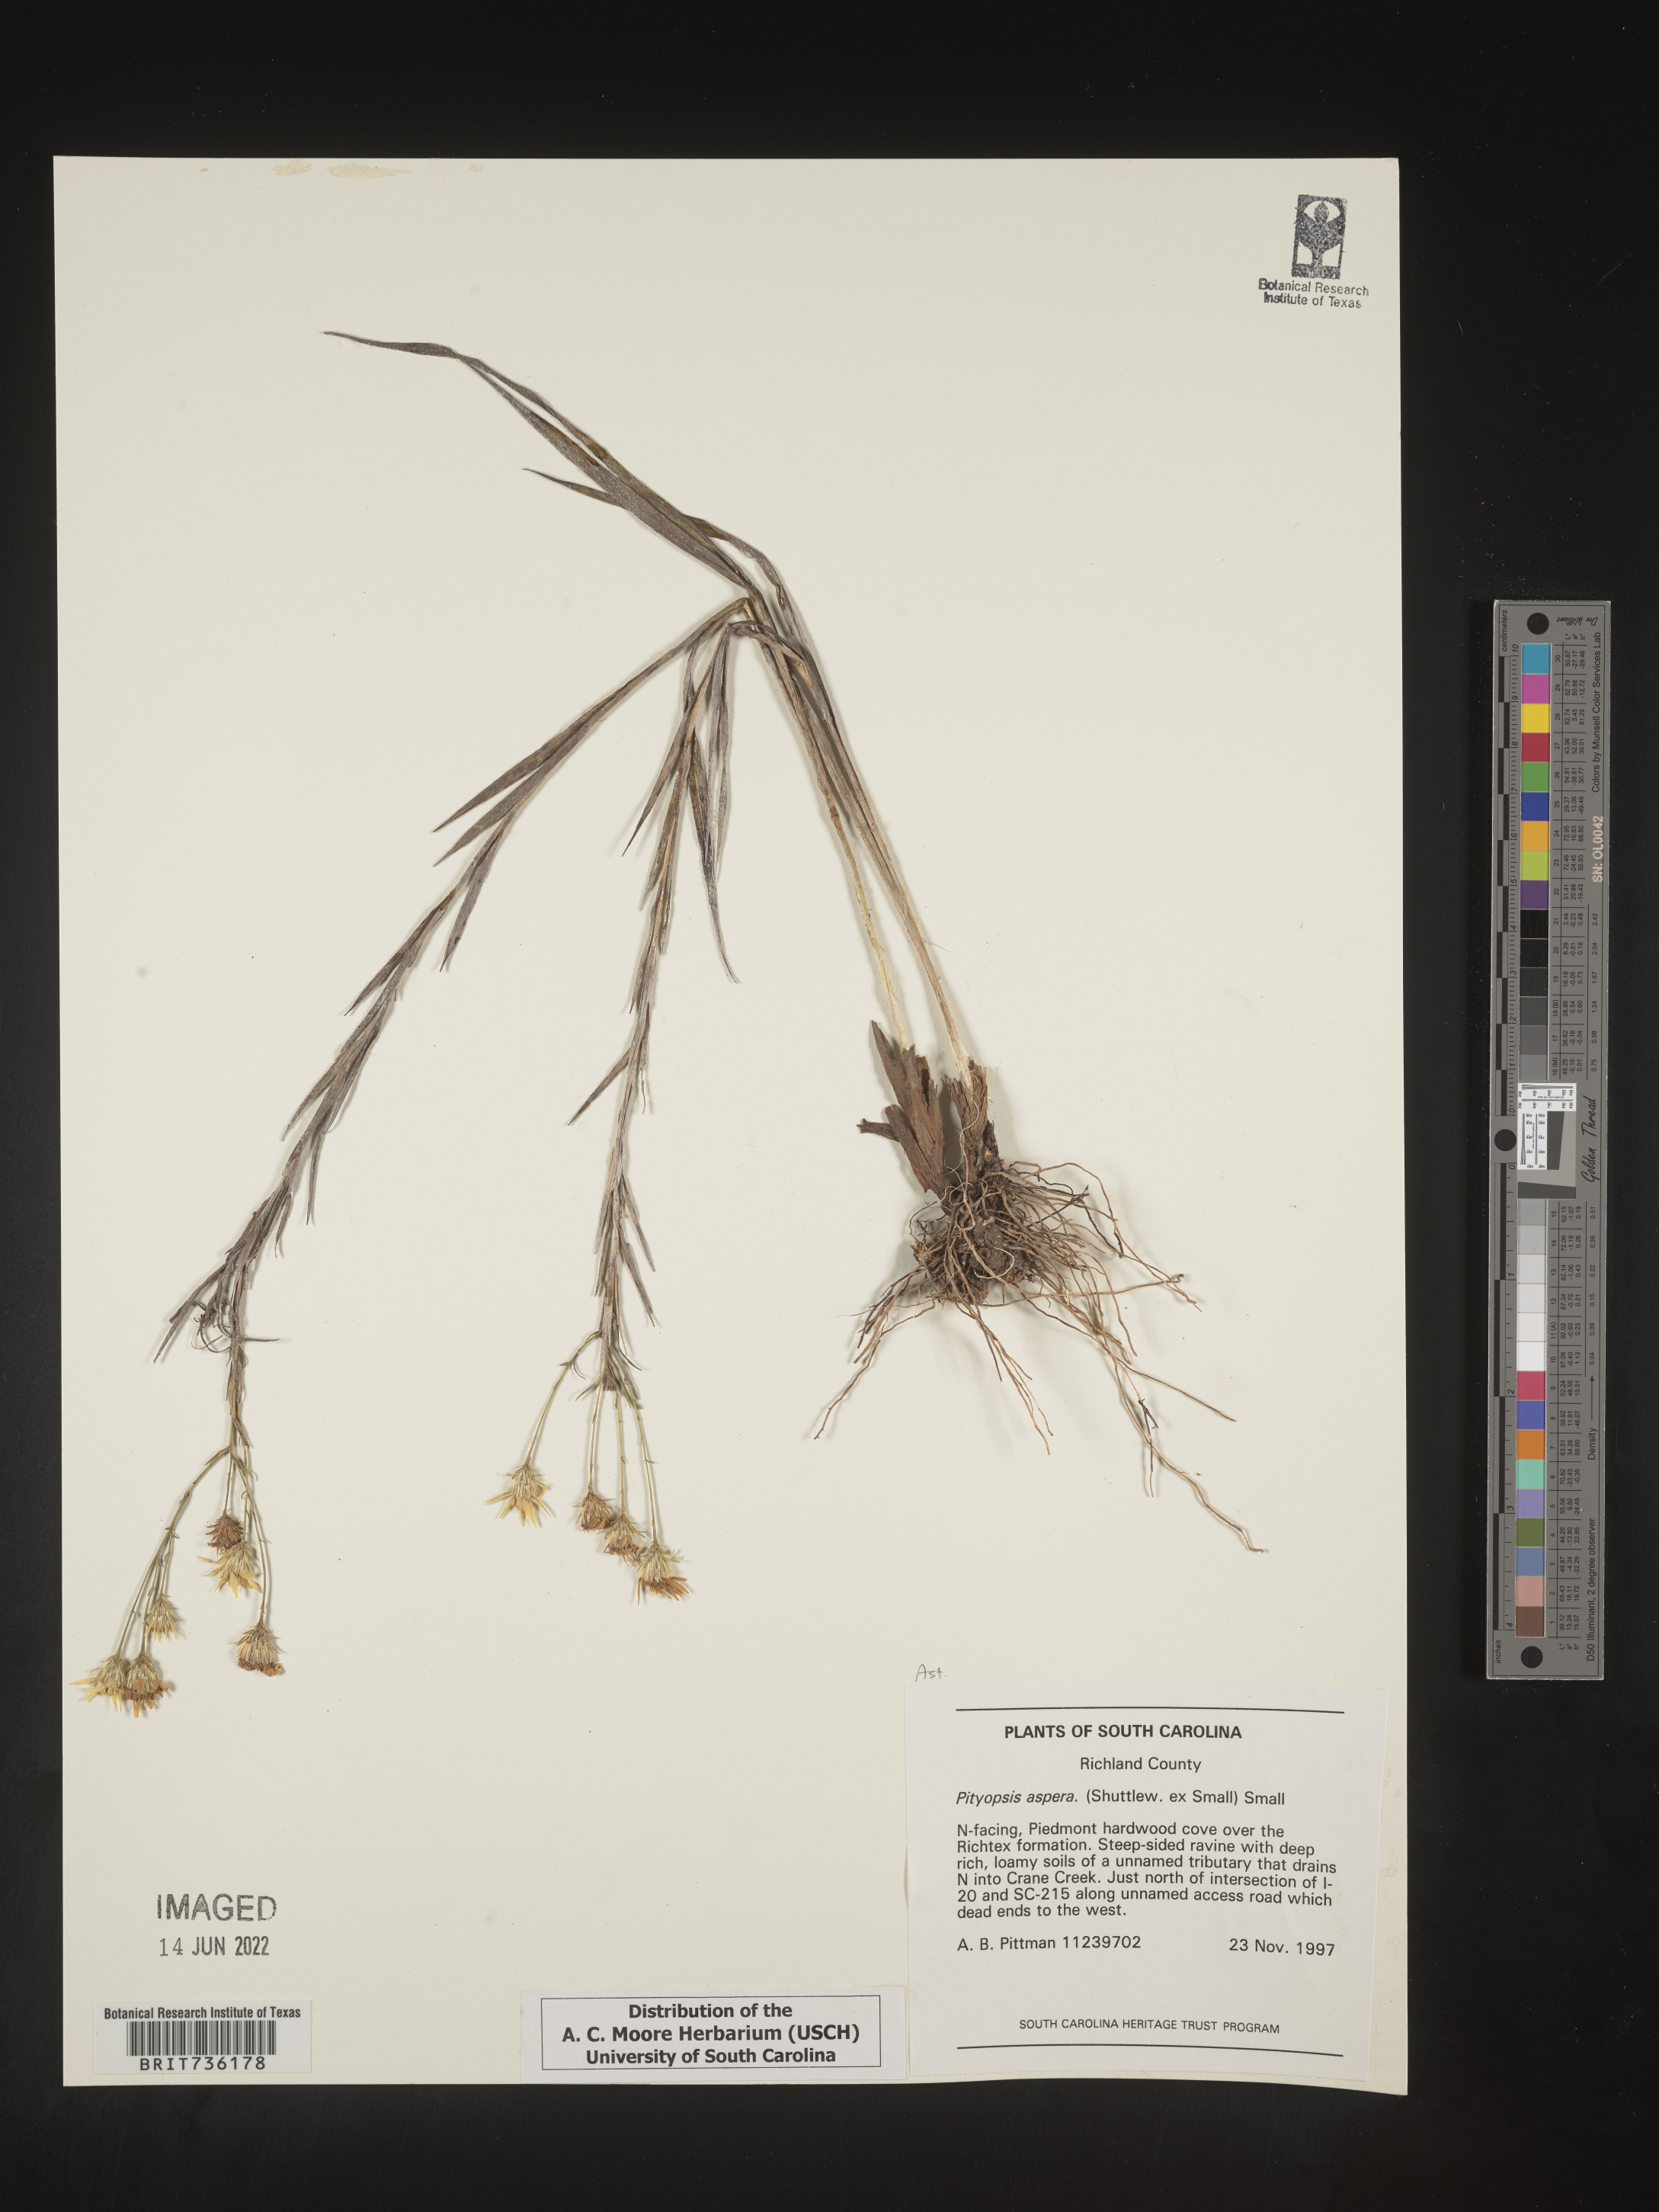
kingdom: Plantae
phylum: Tracheophyta
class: Magnoliopsida
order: Asterales
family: Asteraceae
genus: Pityopsis
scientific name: Pityopsis aspera
